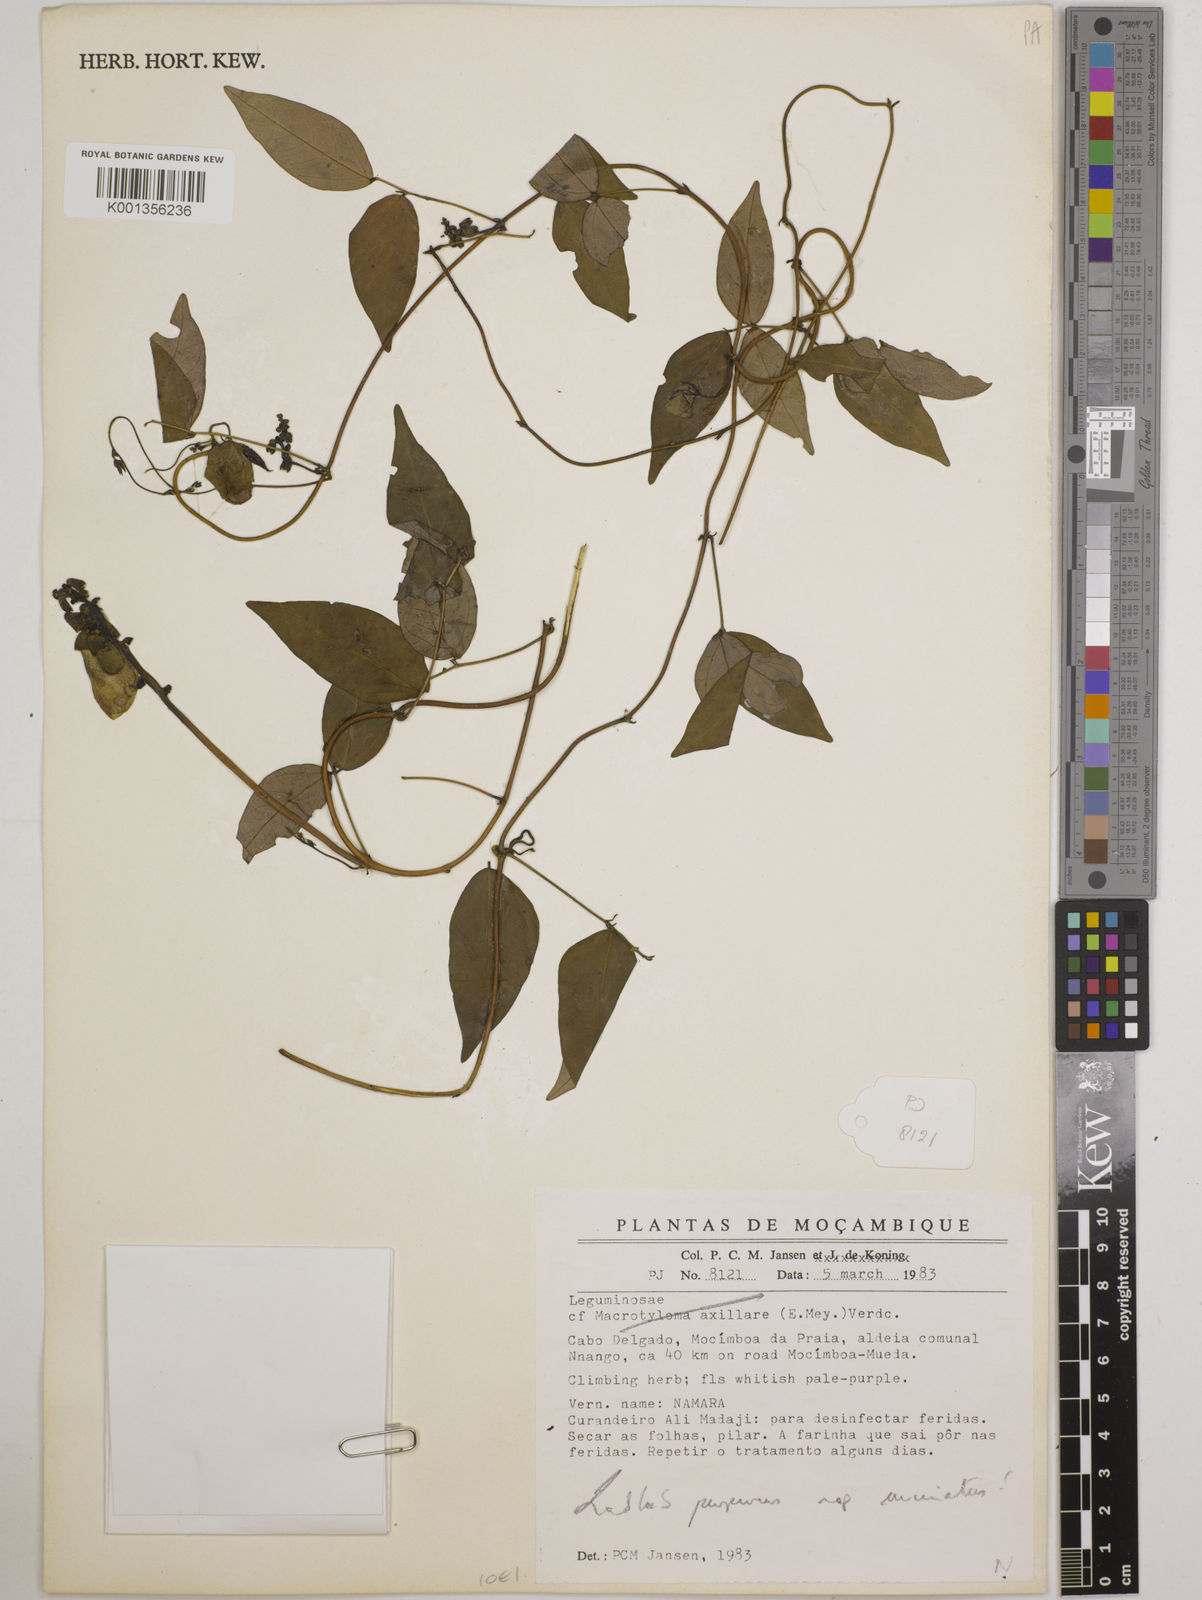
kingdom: Plantae
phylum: Tracheophyta
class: Magnoliopsida
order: Fabales
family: Fabaceae
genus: Lablab
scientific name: Lablab purpureus
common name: Lablab-bean
